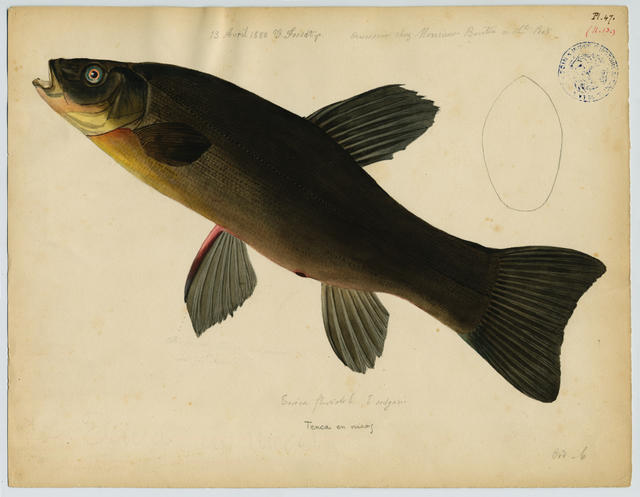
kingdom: Animalia
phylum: Chordata
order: Cypriniformes
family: Cyprinidae
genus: Tinca
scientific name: Tinca tinca
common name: Tench
